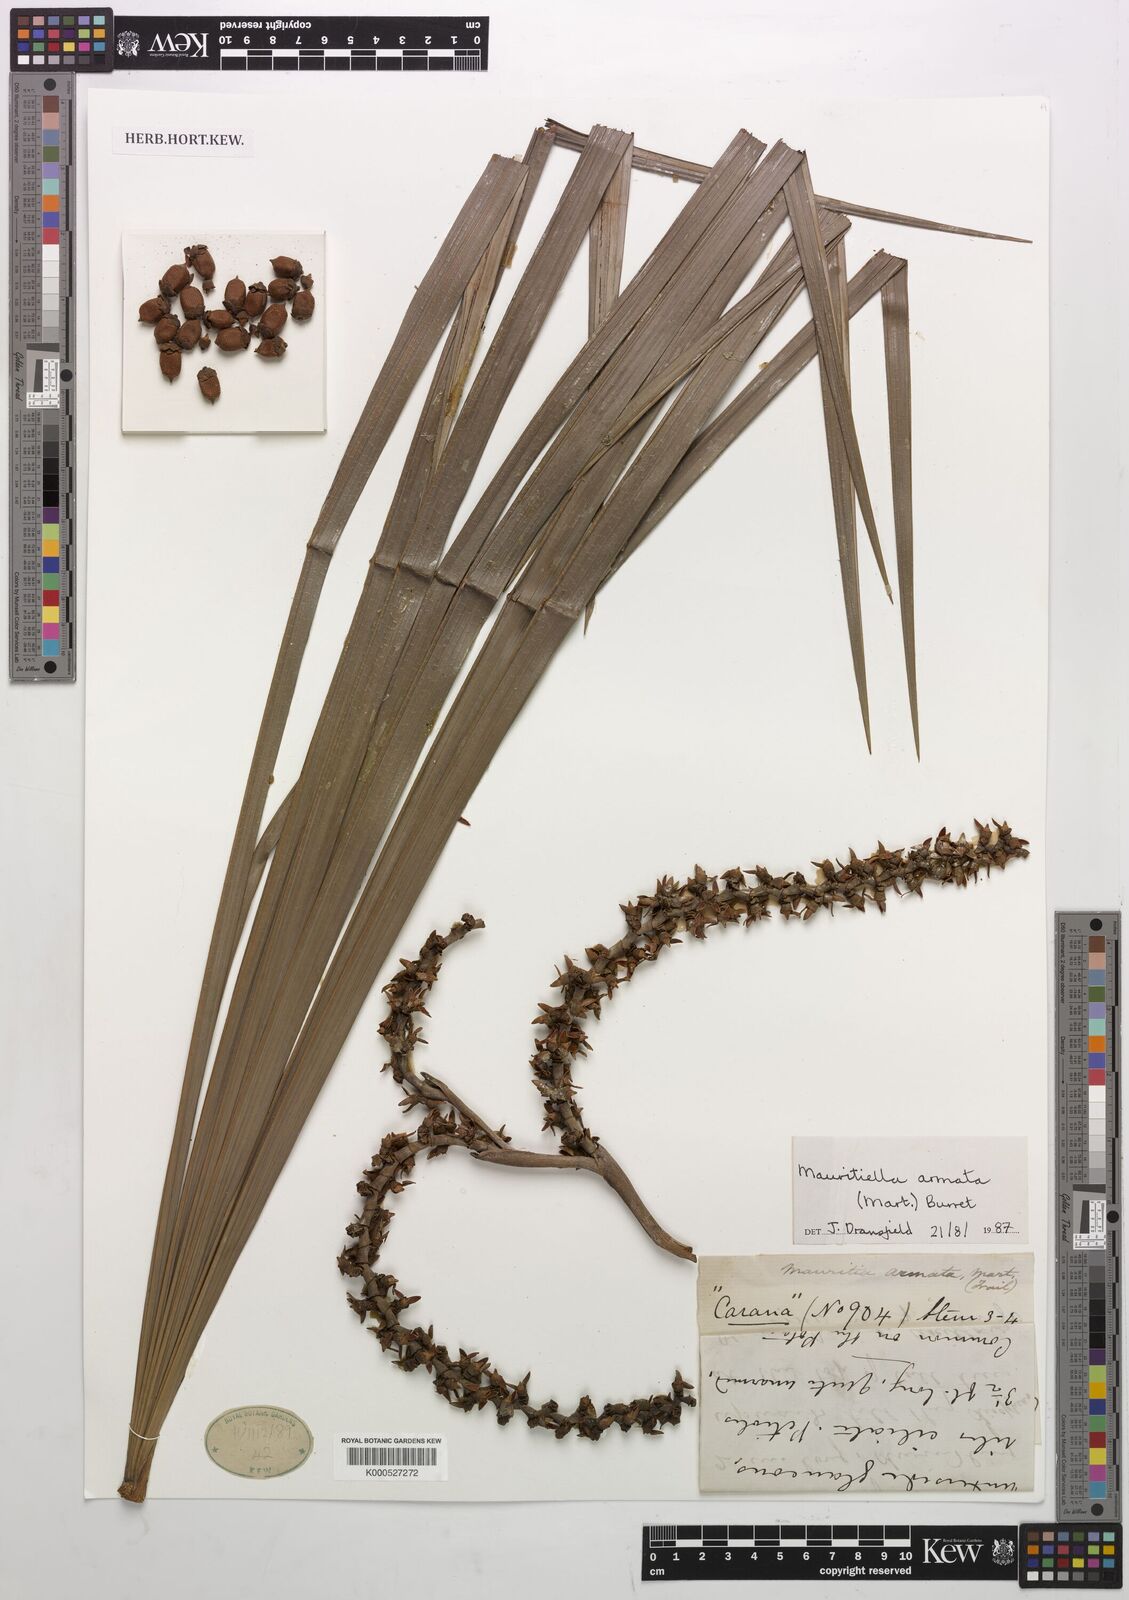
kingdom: Plantae
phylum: Tracheophyta
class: Liliopsida
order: Arecales
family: Arecaceae
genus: Mauritiella
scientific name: Mauritiella armata
